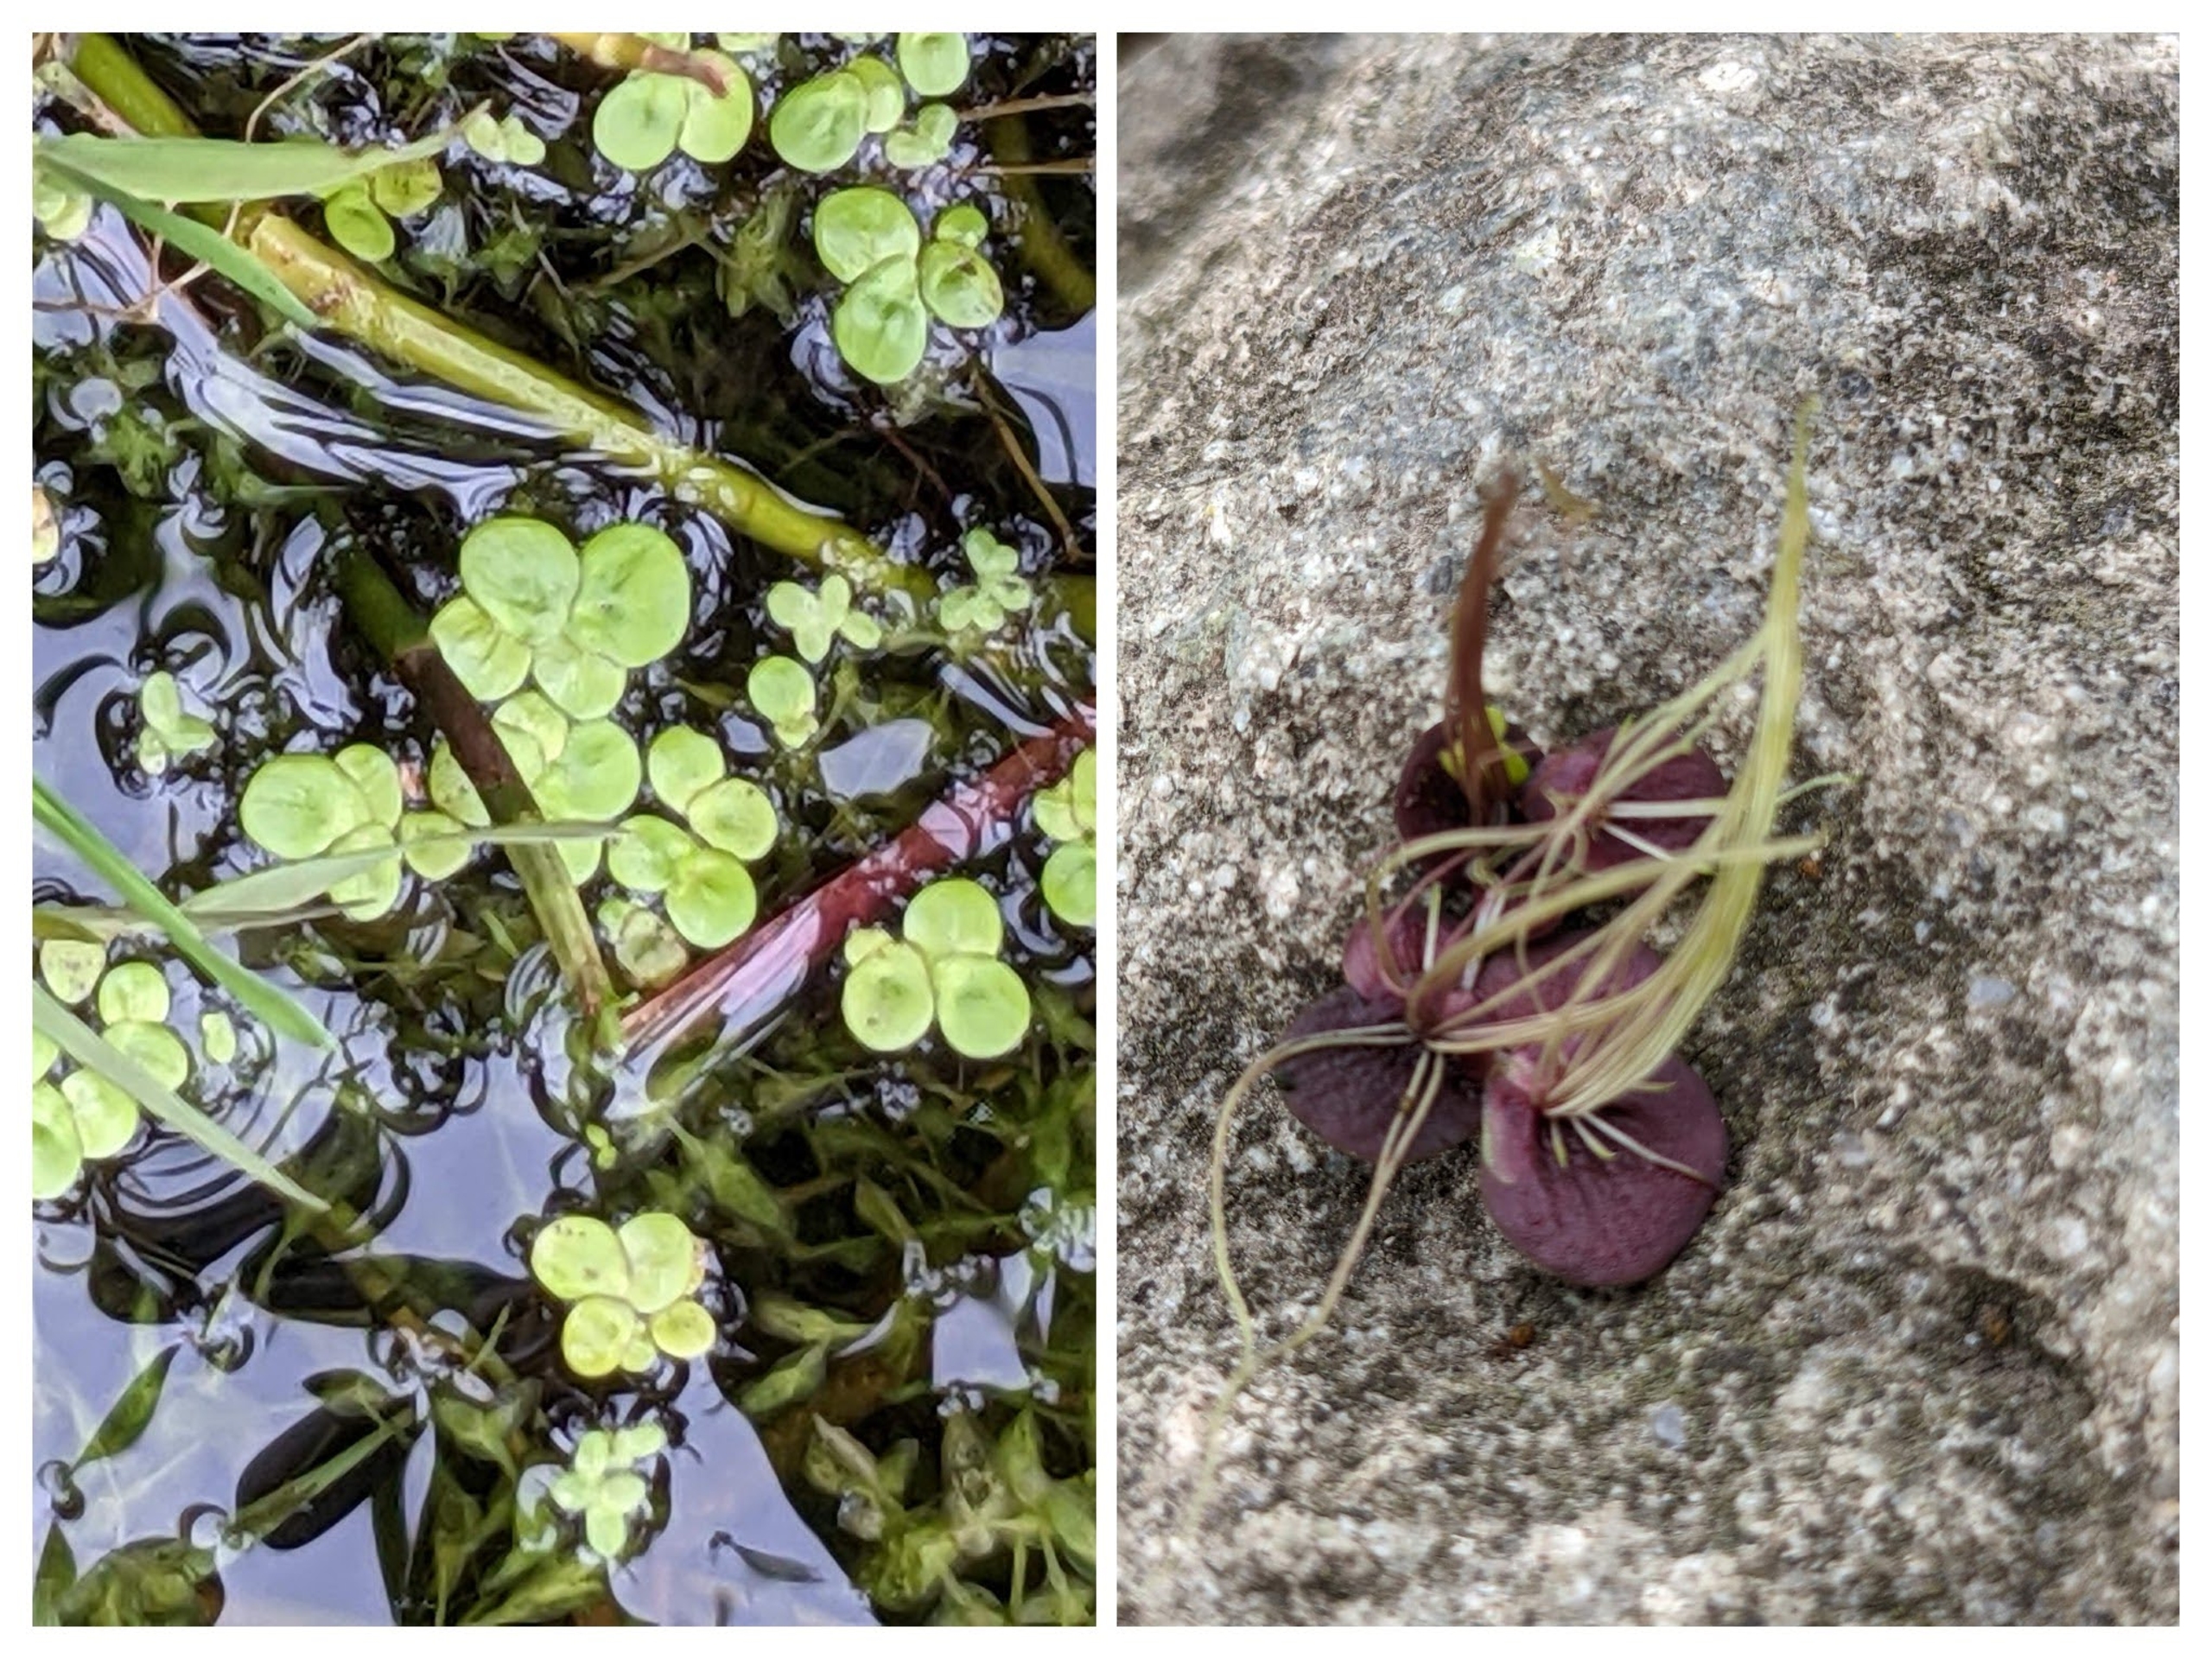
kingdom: Plantae
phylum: Tracheophyta
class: Liliopsida
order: Alismatales
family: Araceae
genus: Spirodela
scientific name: Spirodela polyrhiza
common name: Stor andemad
